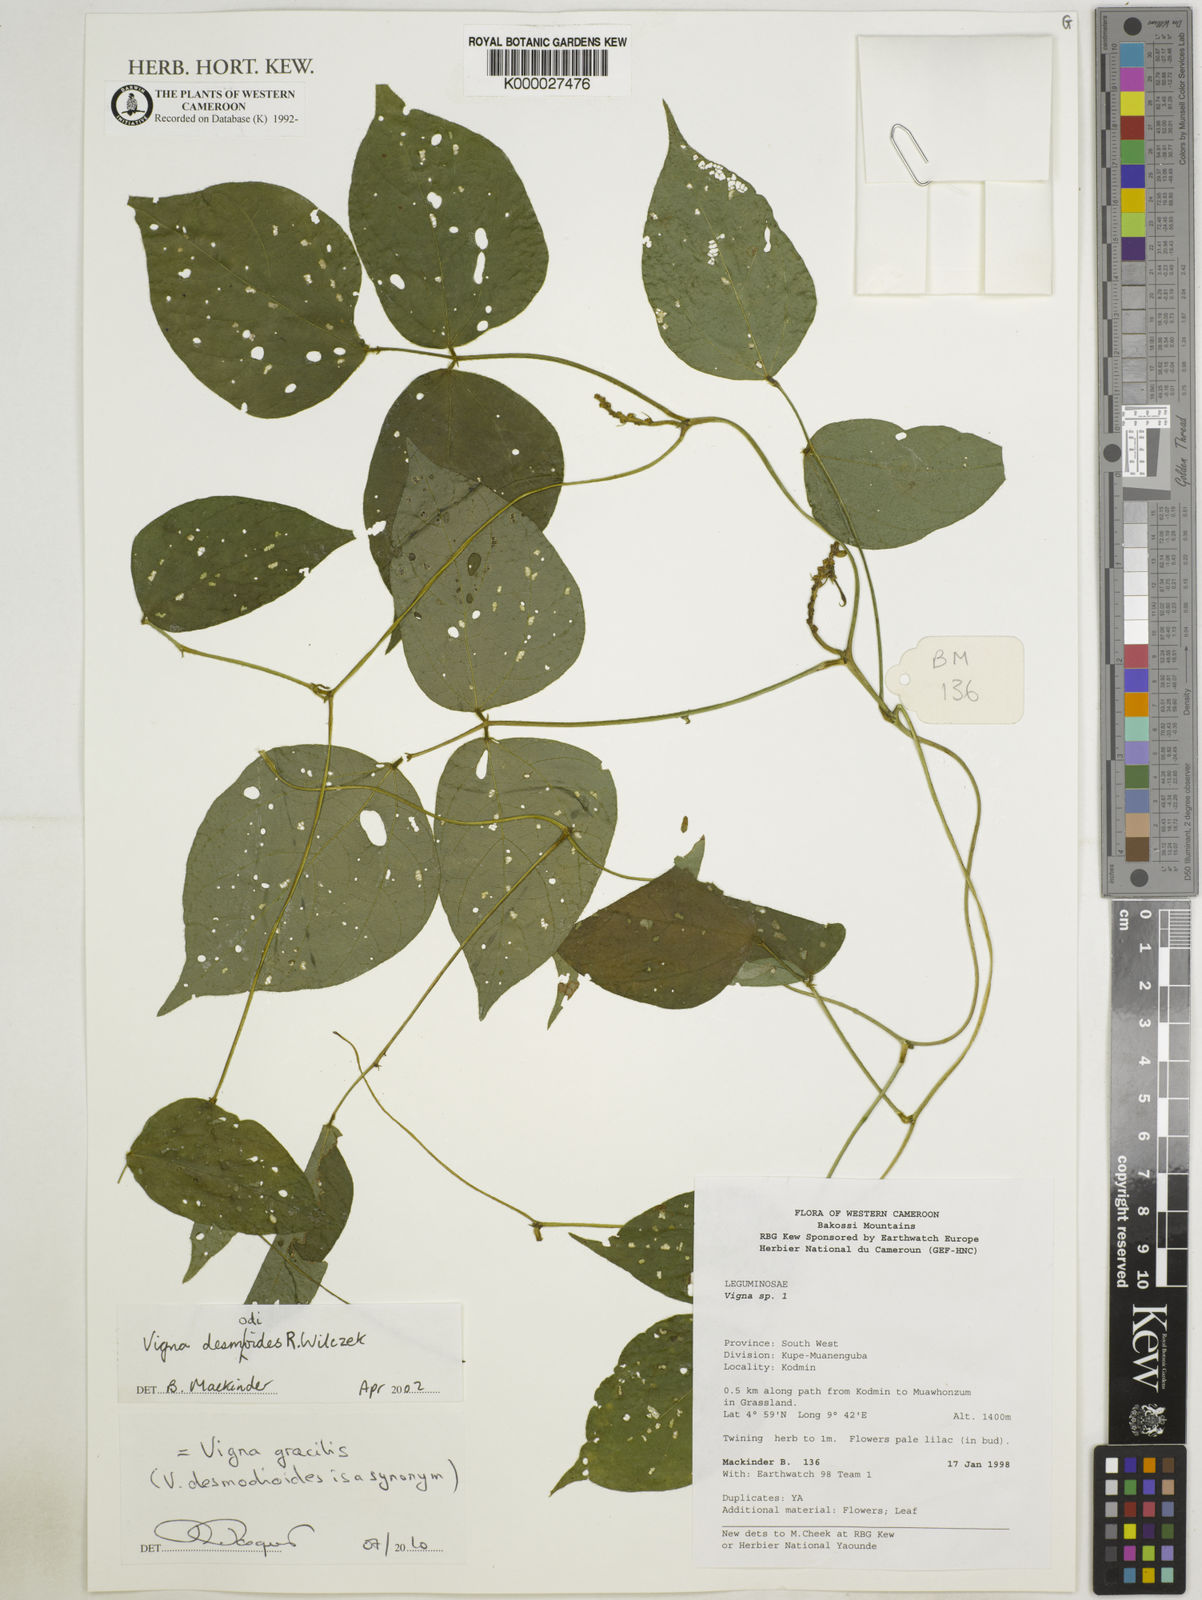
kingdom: Plantae
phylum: Tracheophyta
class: Magnoliopsida
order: Fabales
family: Fabaceae
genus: Vigna
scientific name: Vigna gracilis
